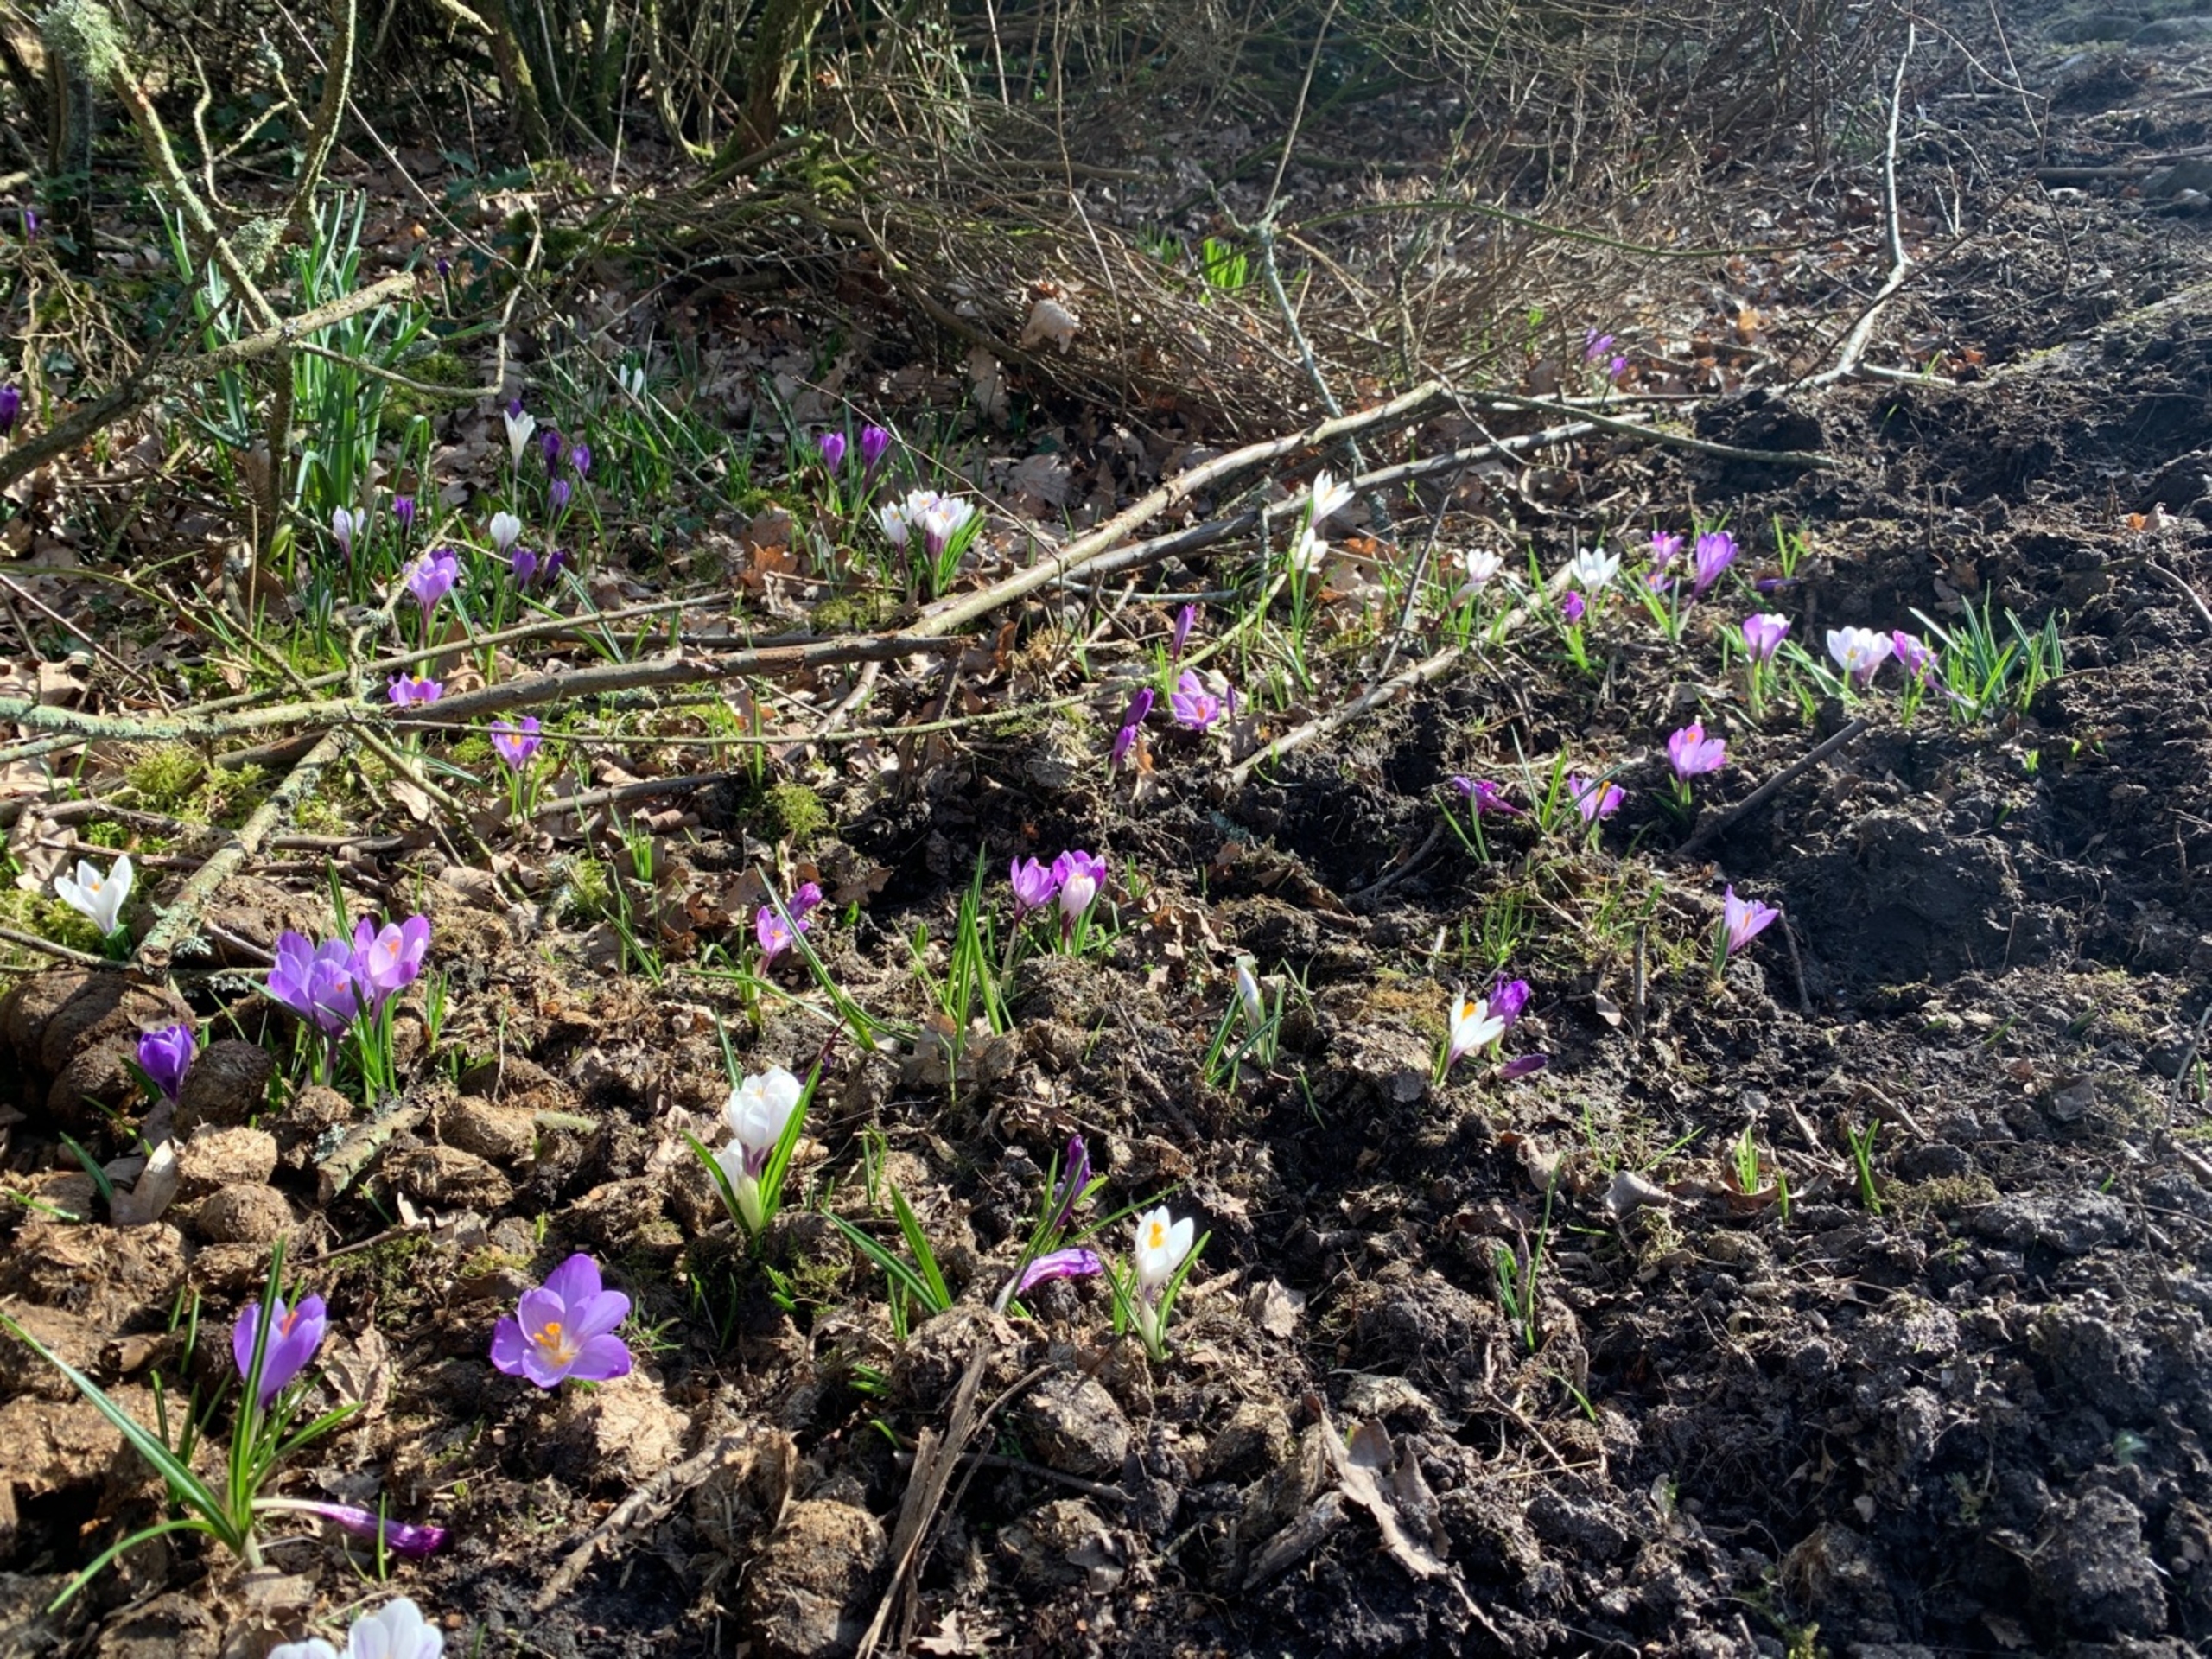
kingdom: Plantae
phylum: Tracheophyta
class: Liliopsida
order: Asparagales
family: Iridaceae
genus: Crocus
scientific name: Crocus vernus
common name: Vår-krokus
